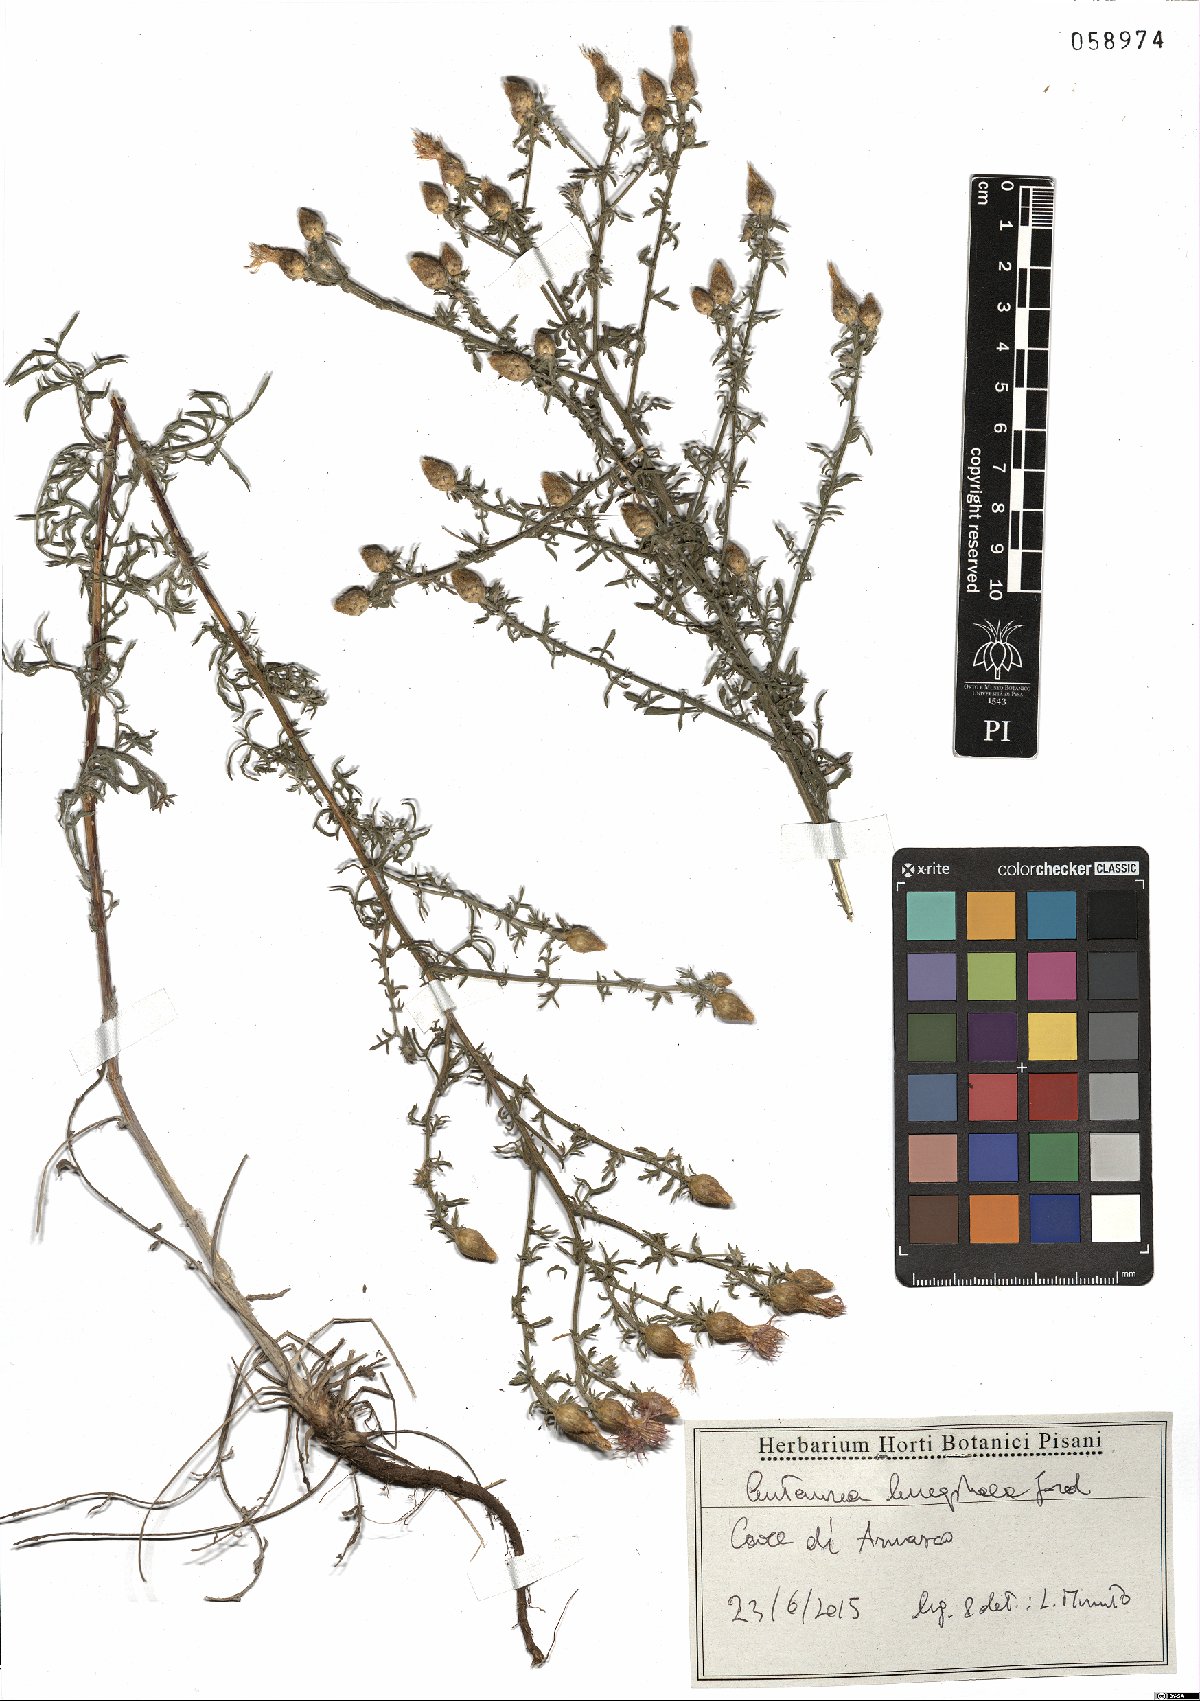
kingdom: Plantae
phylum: Tracheophyta
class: Magnoliopsida
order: Asterales
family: Asteraceae
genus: Centaurea
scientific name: Centaurea leucophaea
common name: Whitish-leaved knapweed
